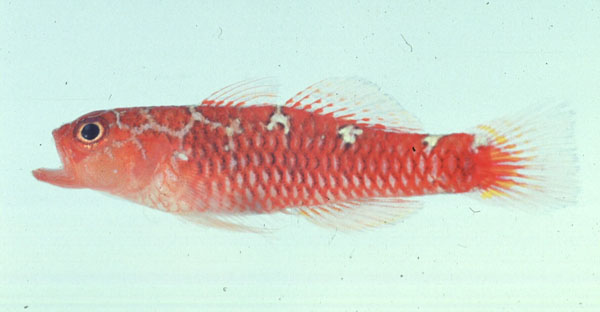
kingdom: Animalia
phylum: Chordata
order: Perciformes
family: Gobiidae
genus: Trimma
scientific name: Trimma caesiura
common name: Caesiura dwarfgoby
